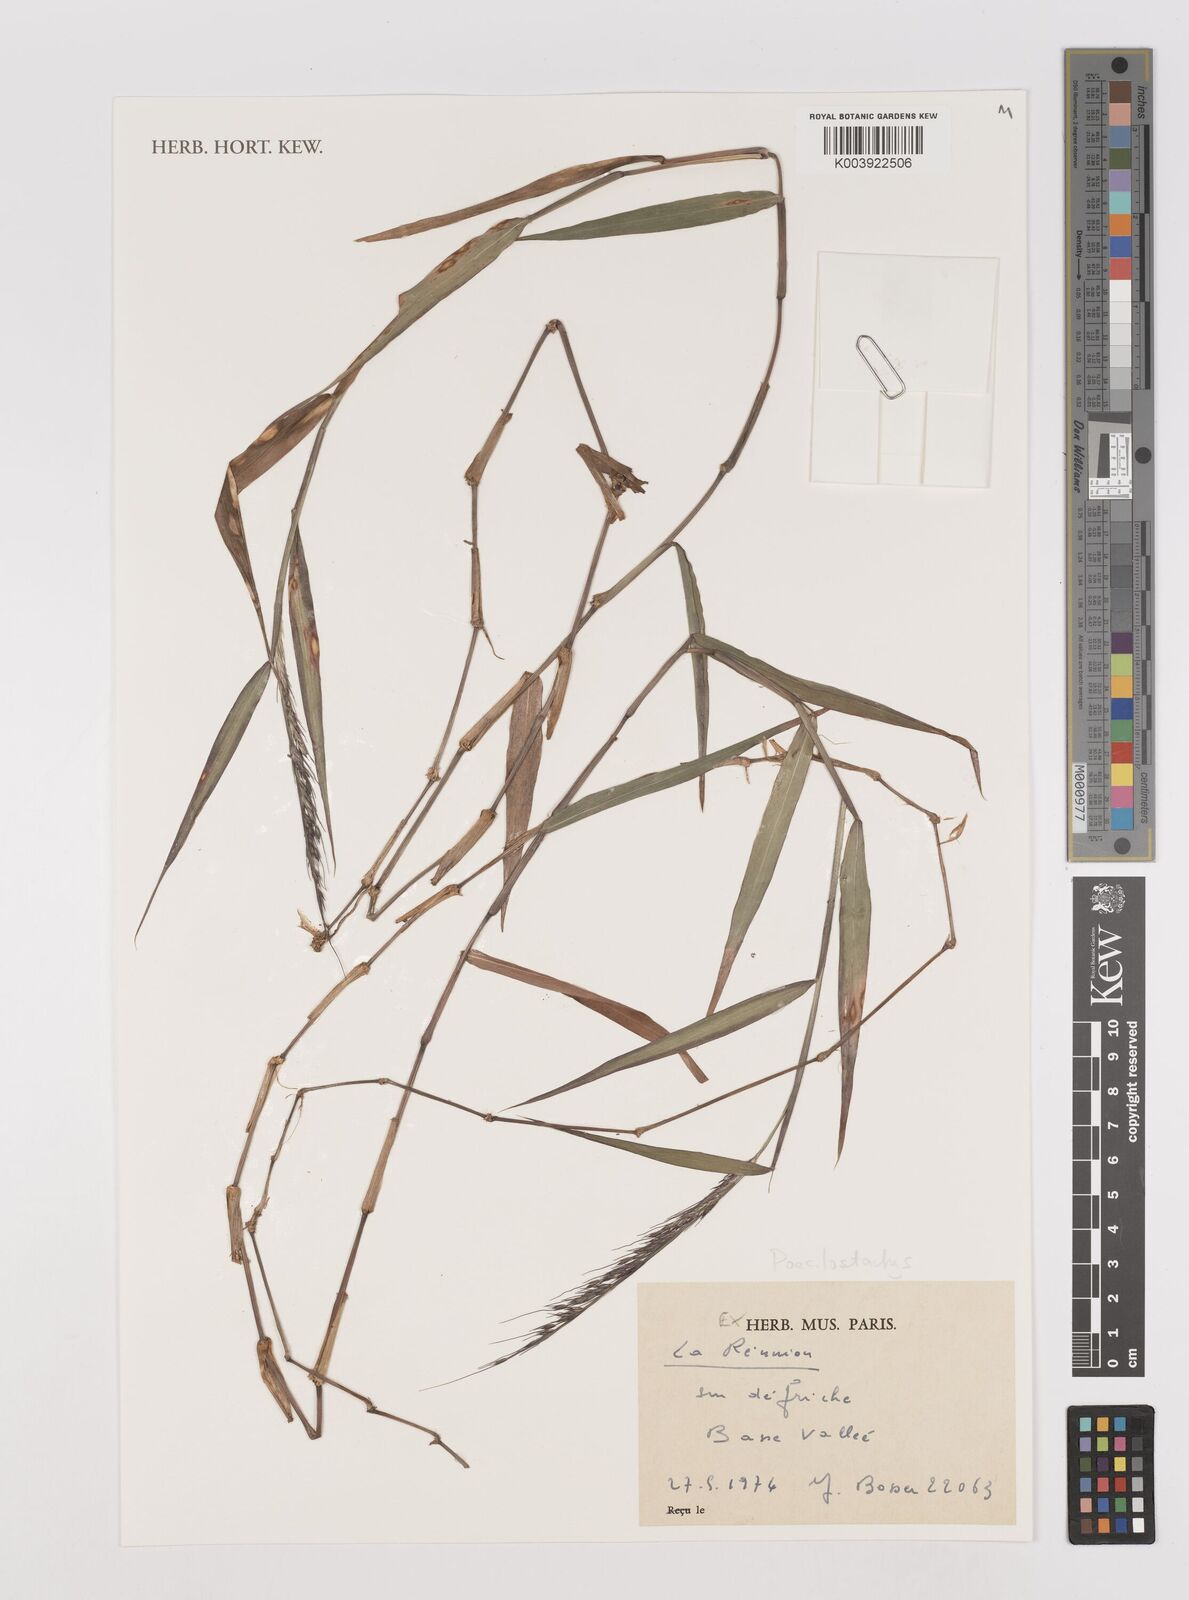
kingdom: Plantae
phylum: Tracheophyta
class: Liliopsida
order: Poales
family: Poaceae
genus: Poecilostachys
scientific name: Poecilostachys
